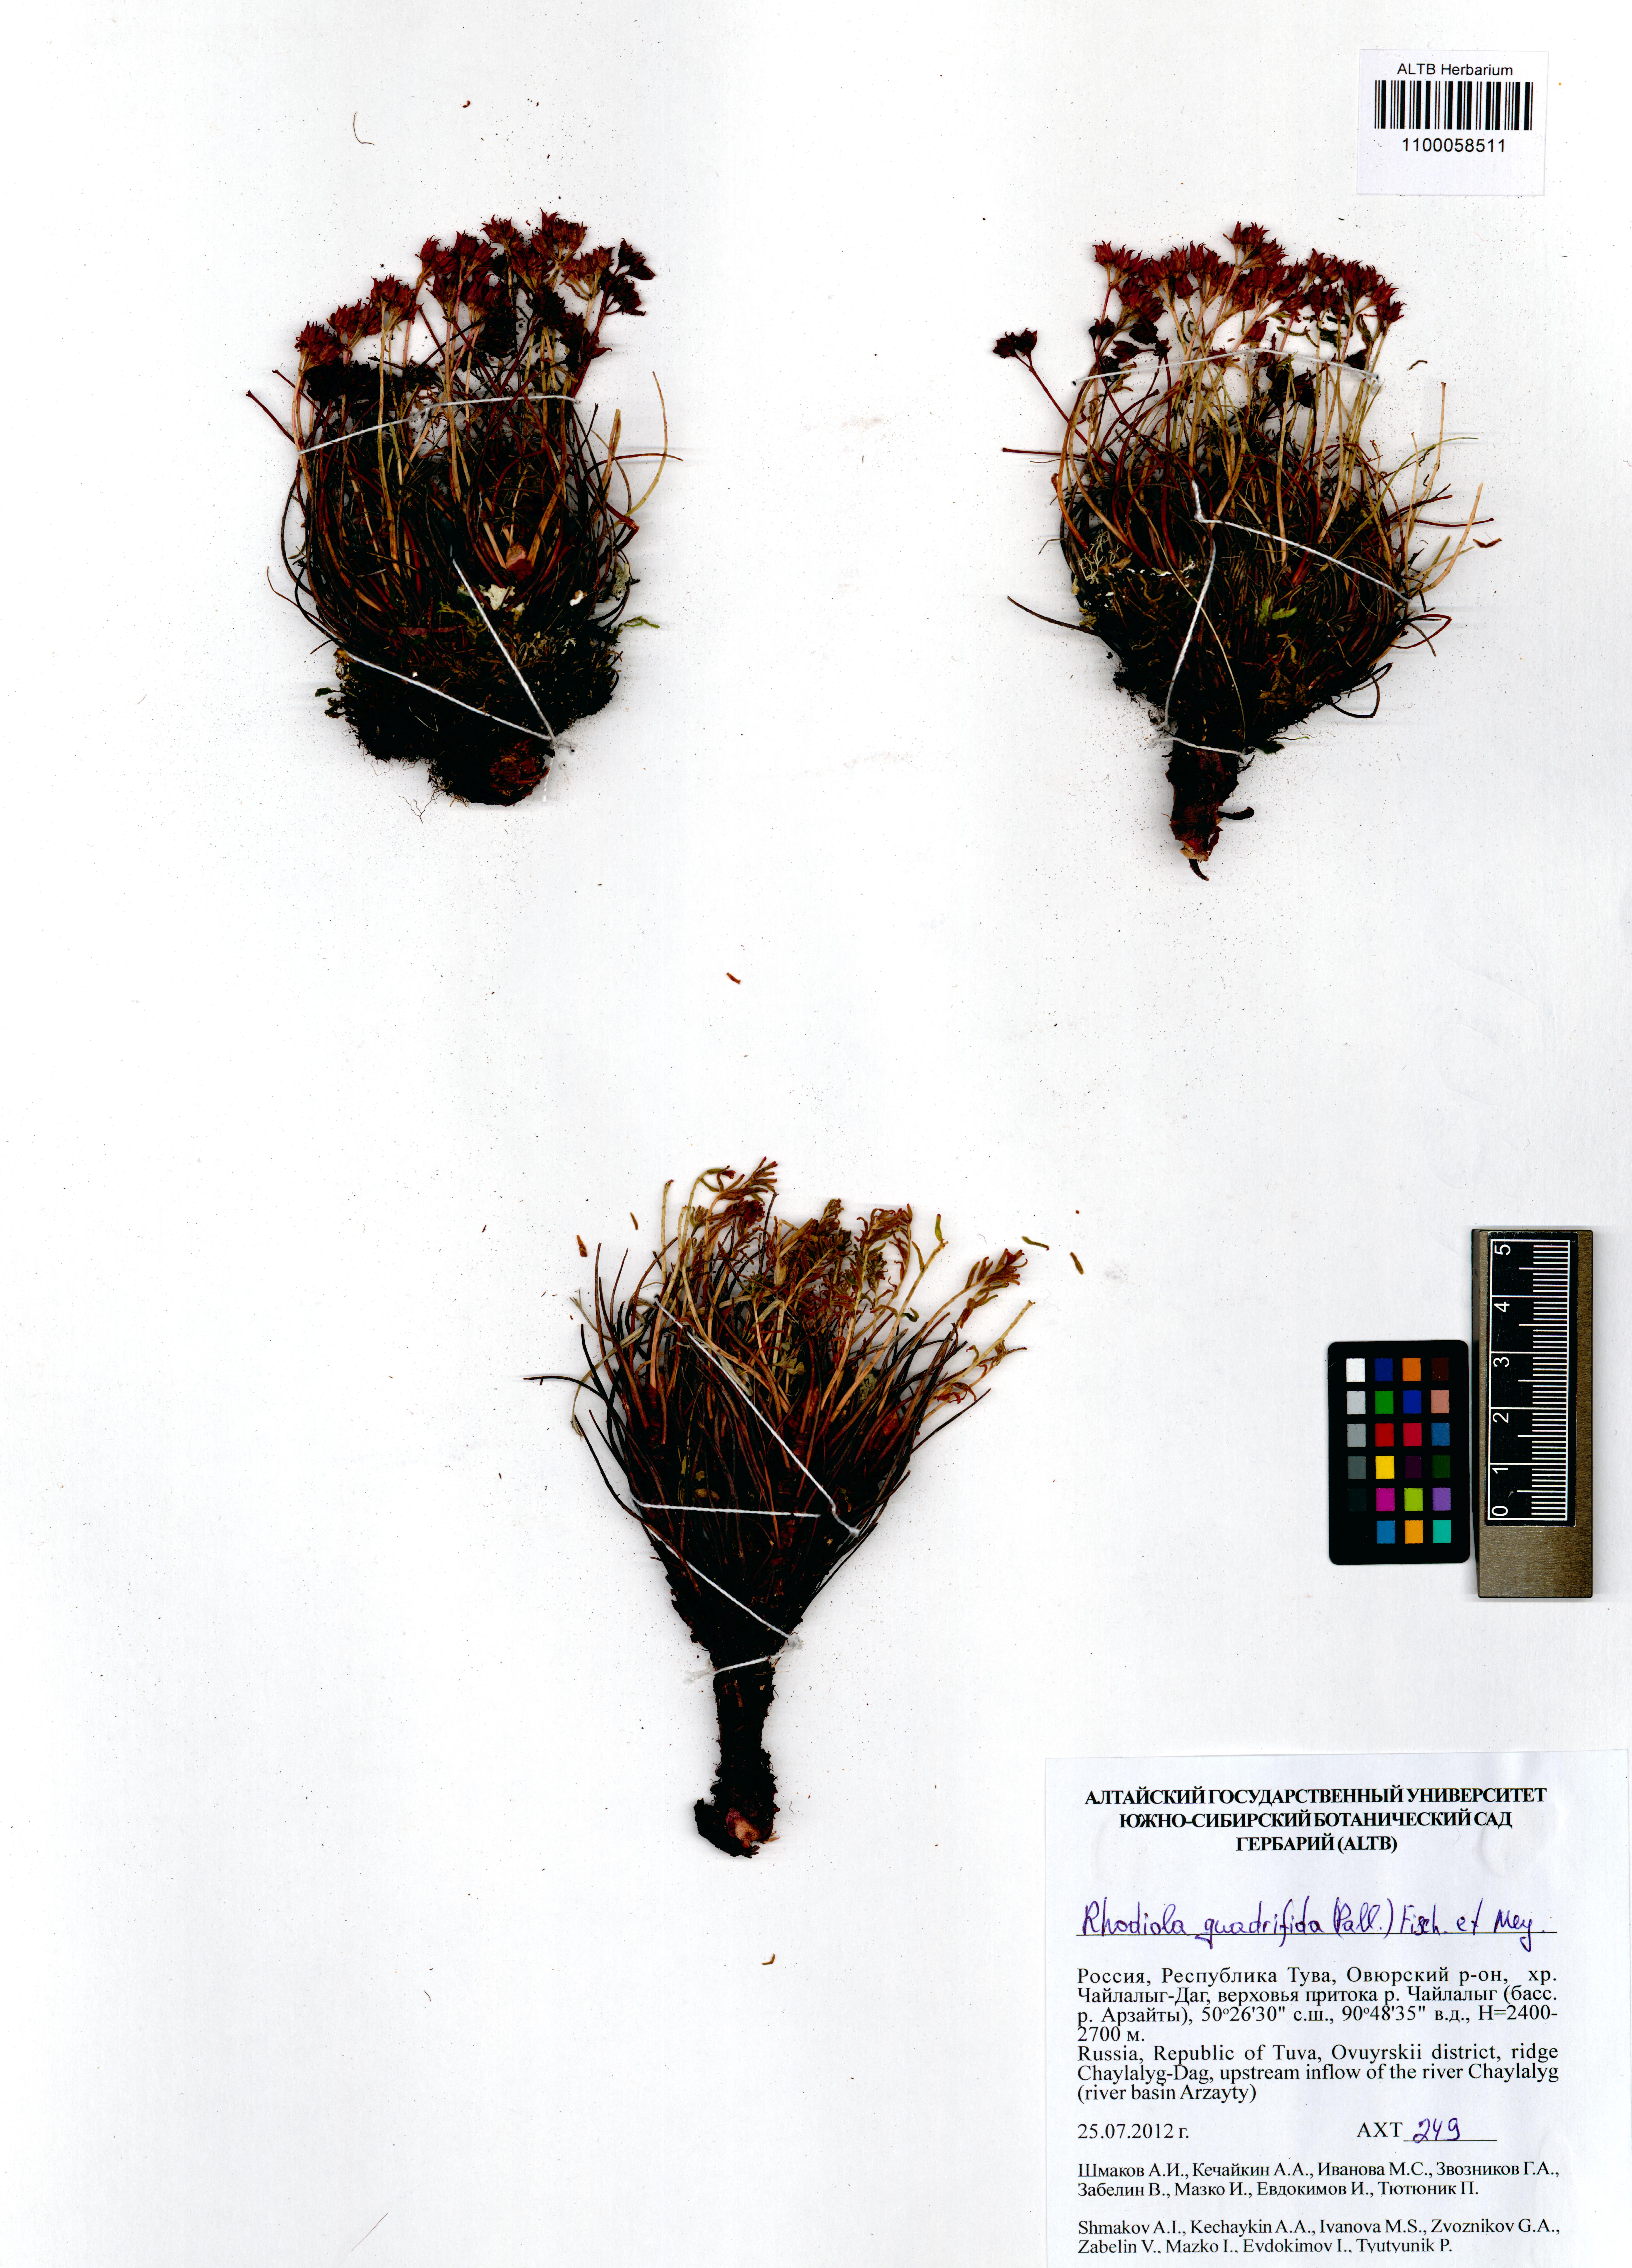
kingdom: Plantae
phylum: Tracheophyta
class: Magnoliopsida
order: Saxifragales
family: Crassulaceae
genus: Rhodiola
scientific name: Rhodiola quadrifida
